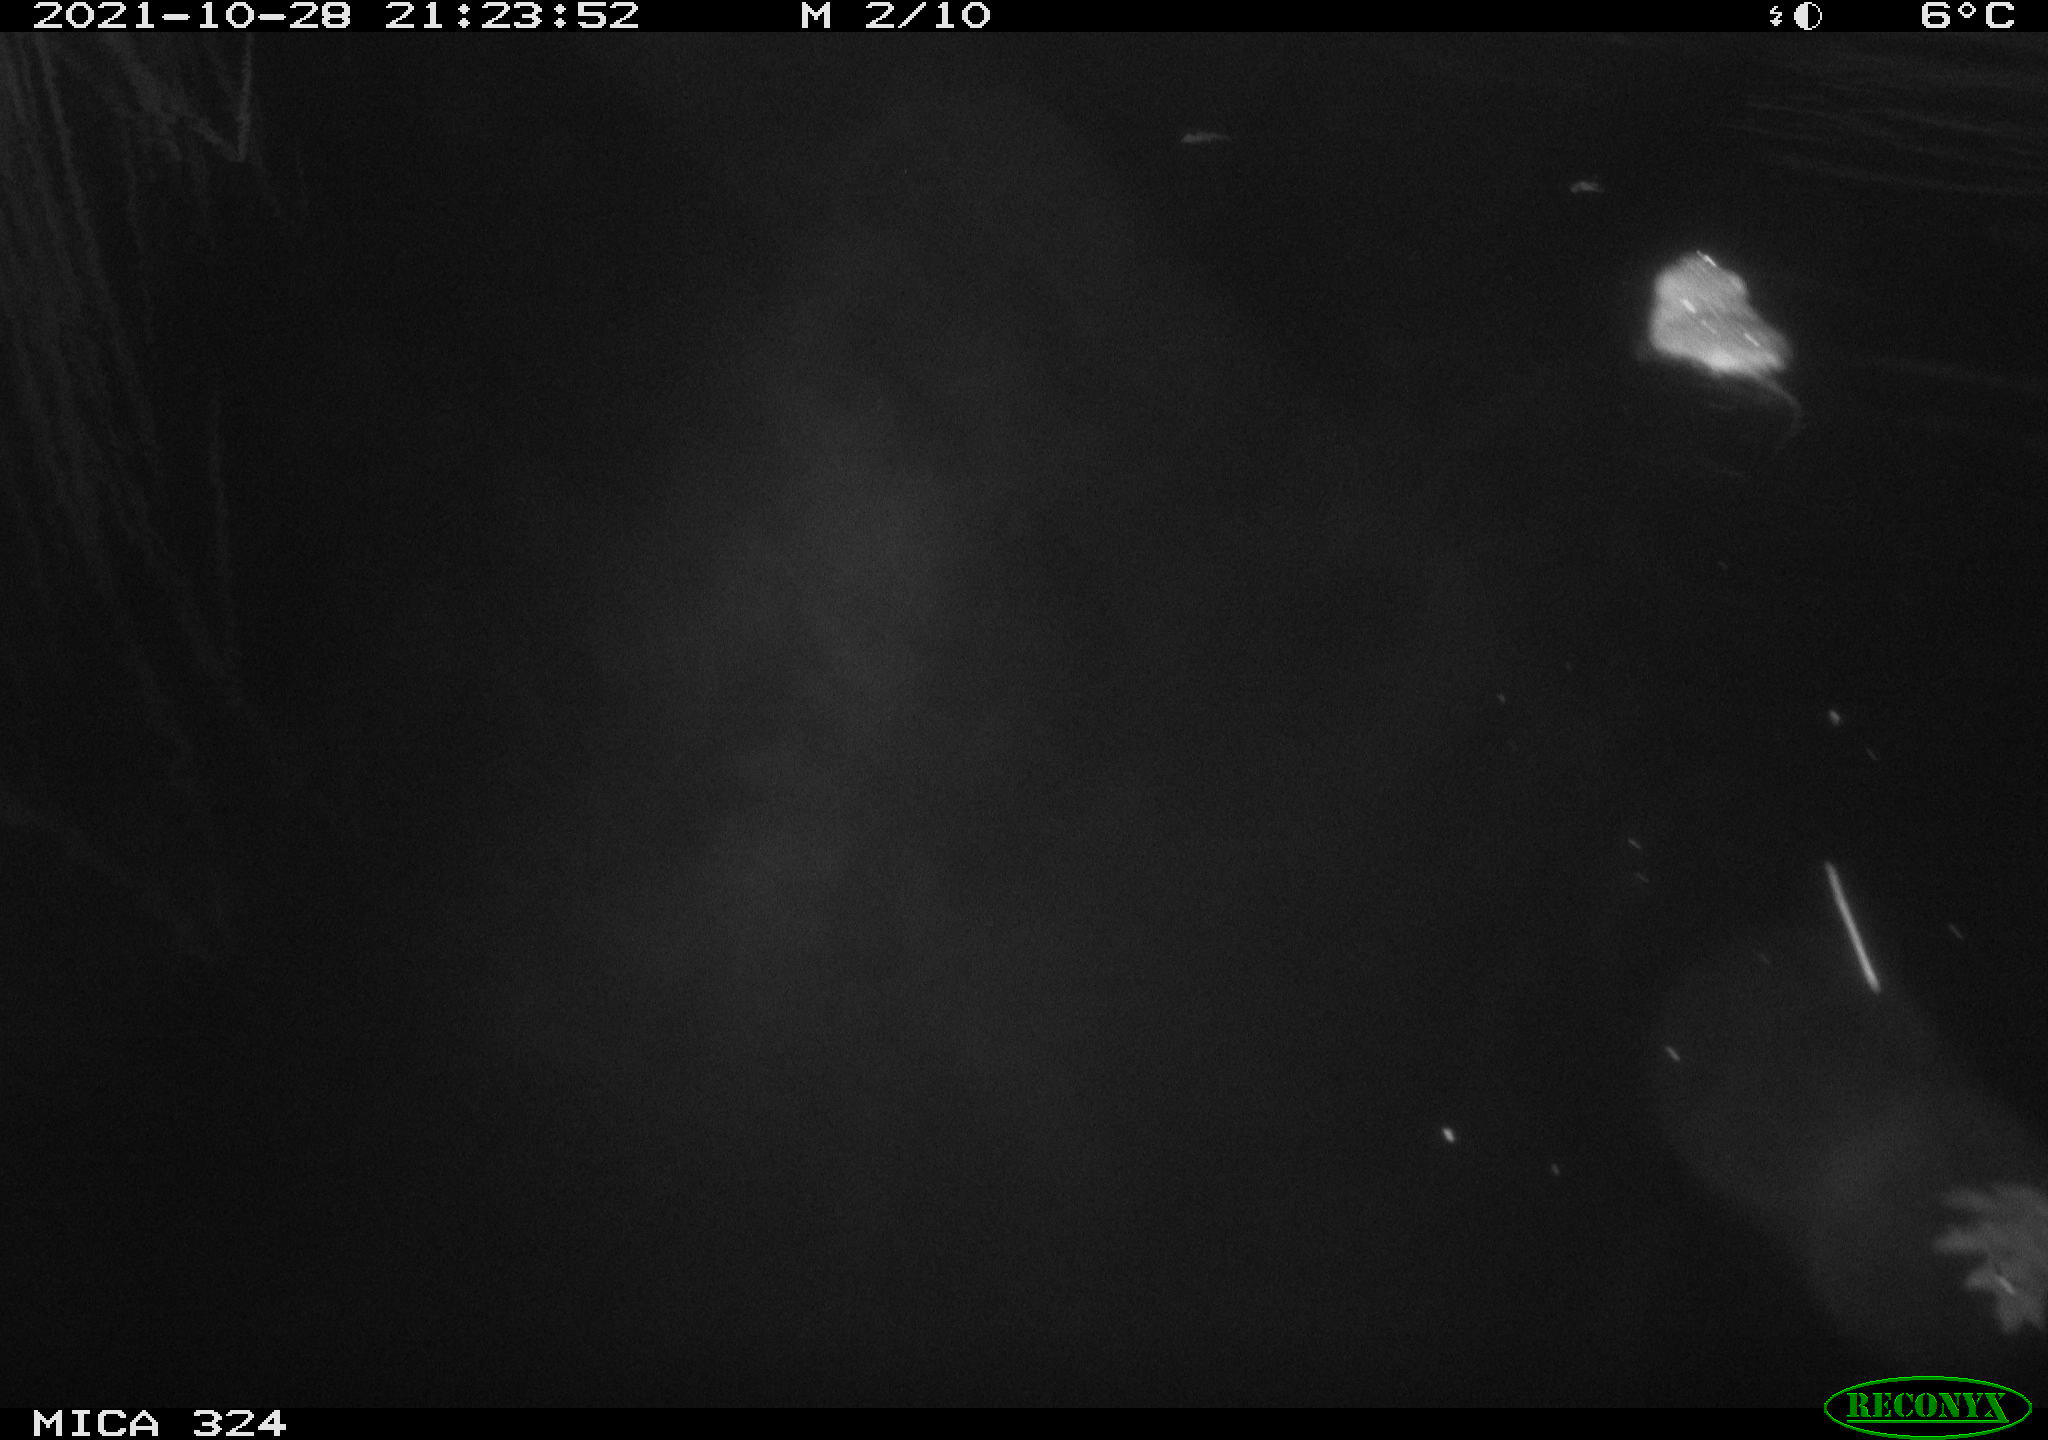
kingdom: Animalia
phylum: Chordata
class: Mammalia
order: Rodentia
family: Cricetidae
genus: Ondatra
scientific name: Ondatra zibethicus
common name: Muskrat
